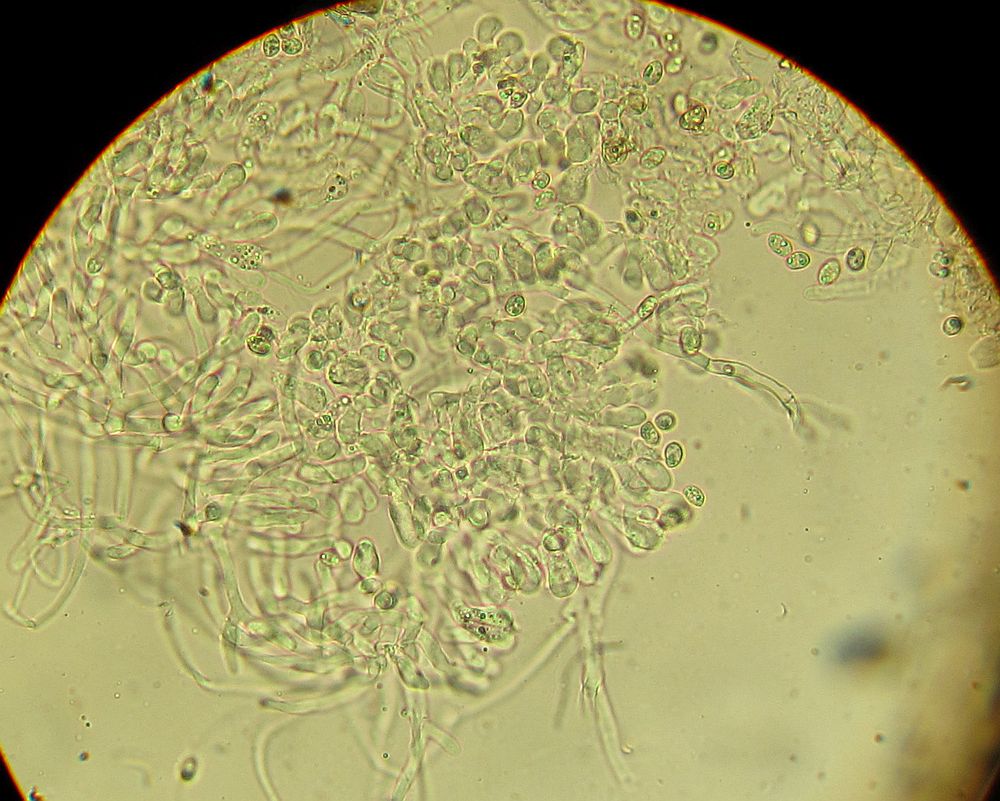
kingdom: Fungi
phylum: Basidiomycota
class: Agaricomycetes
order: Agaricales
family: Crepidotaceae
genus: Pellidiscus
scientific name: Pellidiscus pallidus
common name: skålformet muslingesvamp
